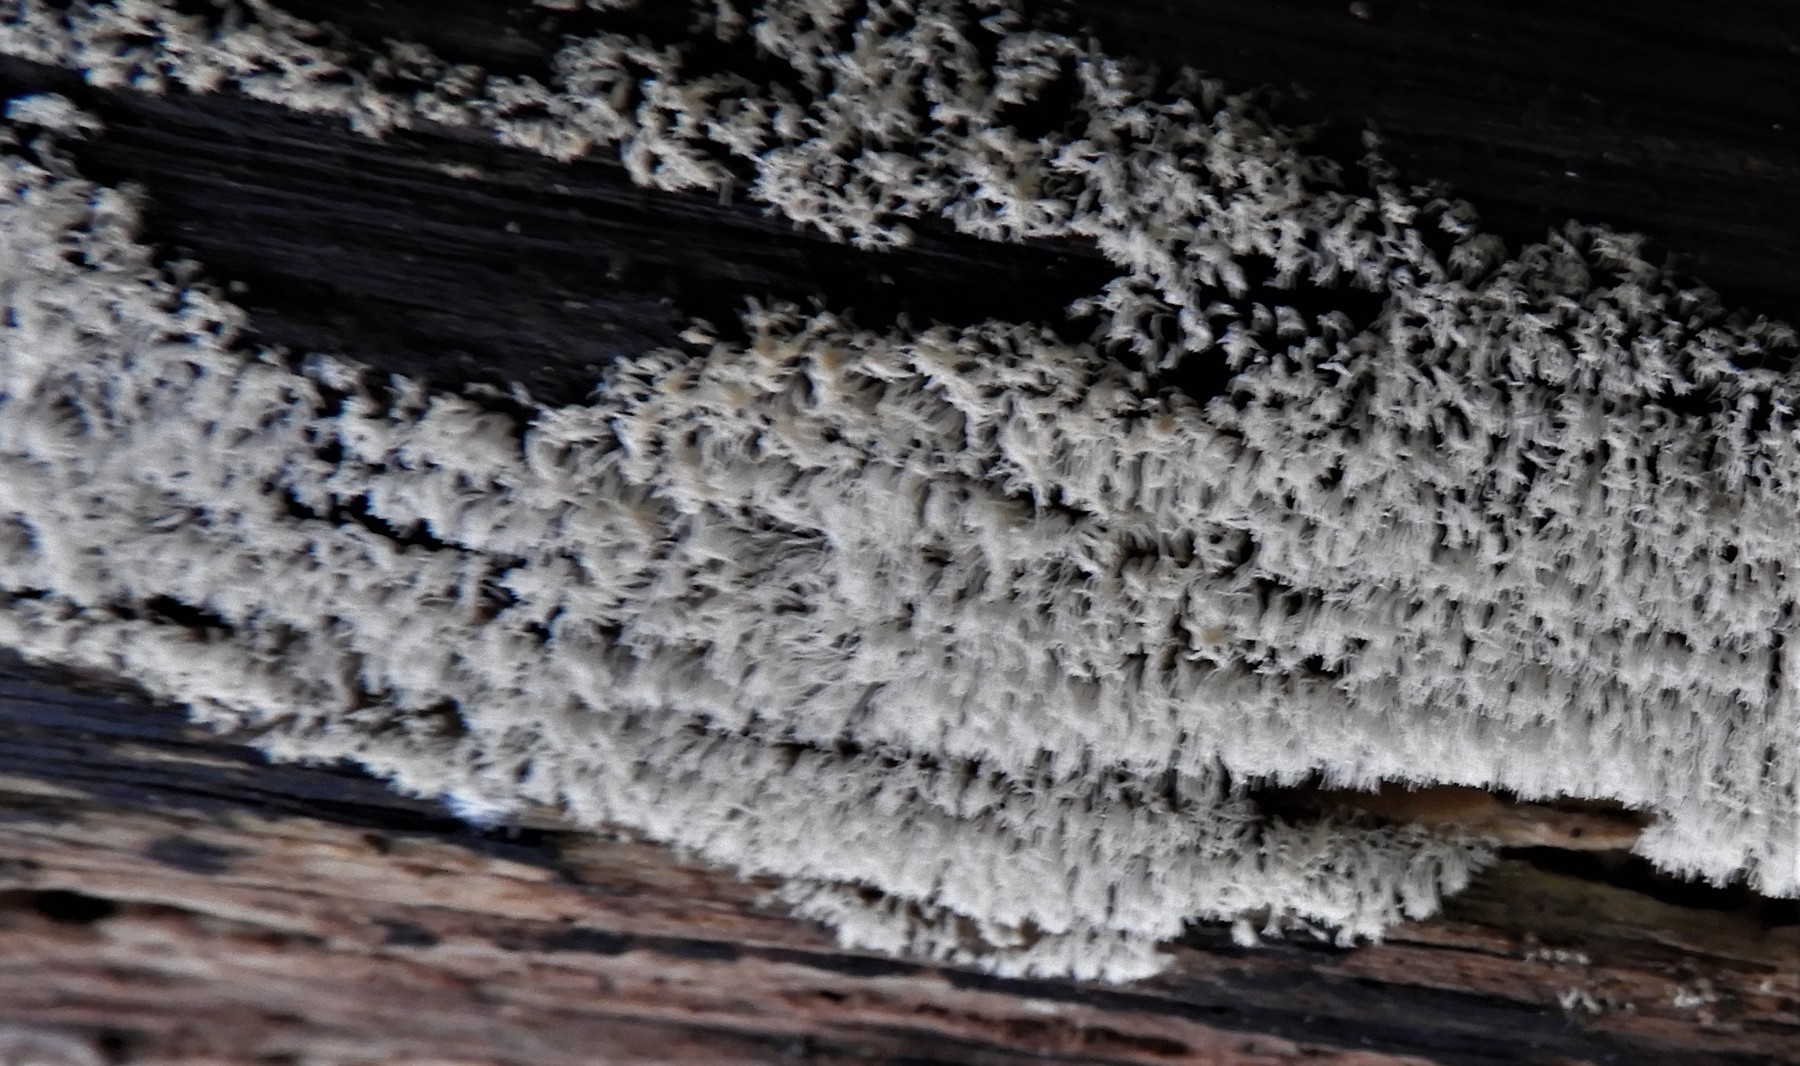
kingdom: Protozoa
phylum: Mycetozoa
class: Protosteliomycetes
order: Ceratiomyxales
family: Ceratiomyxaceae
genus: Ceratiomyxa
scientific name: Ceratiomyxa fruticulosa
